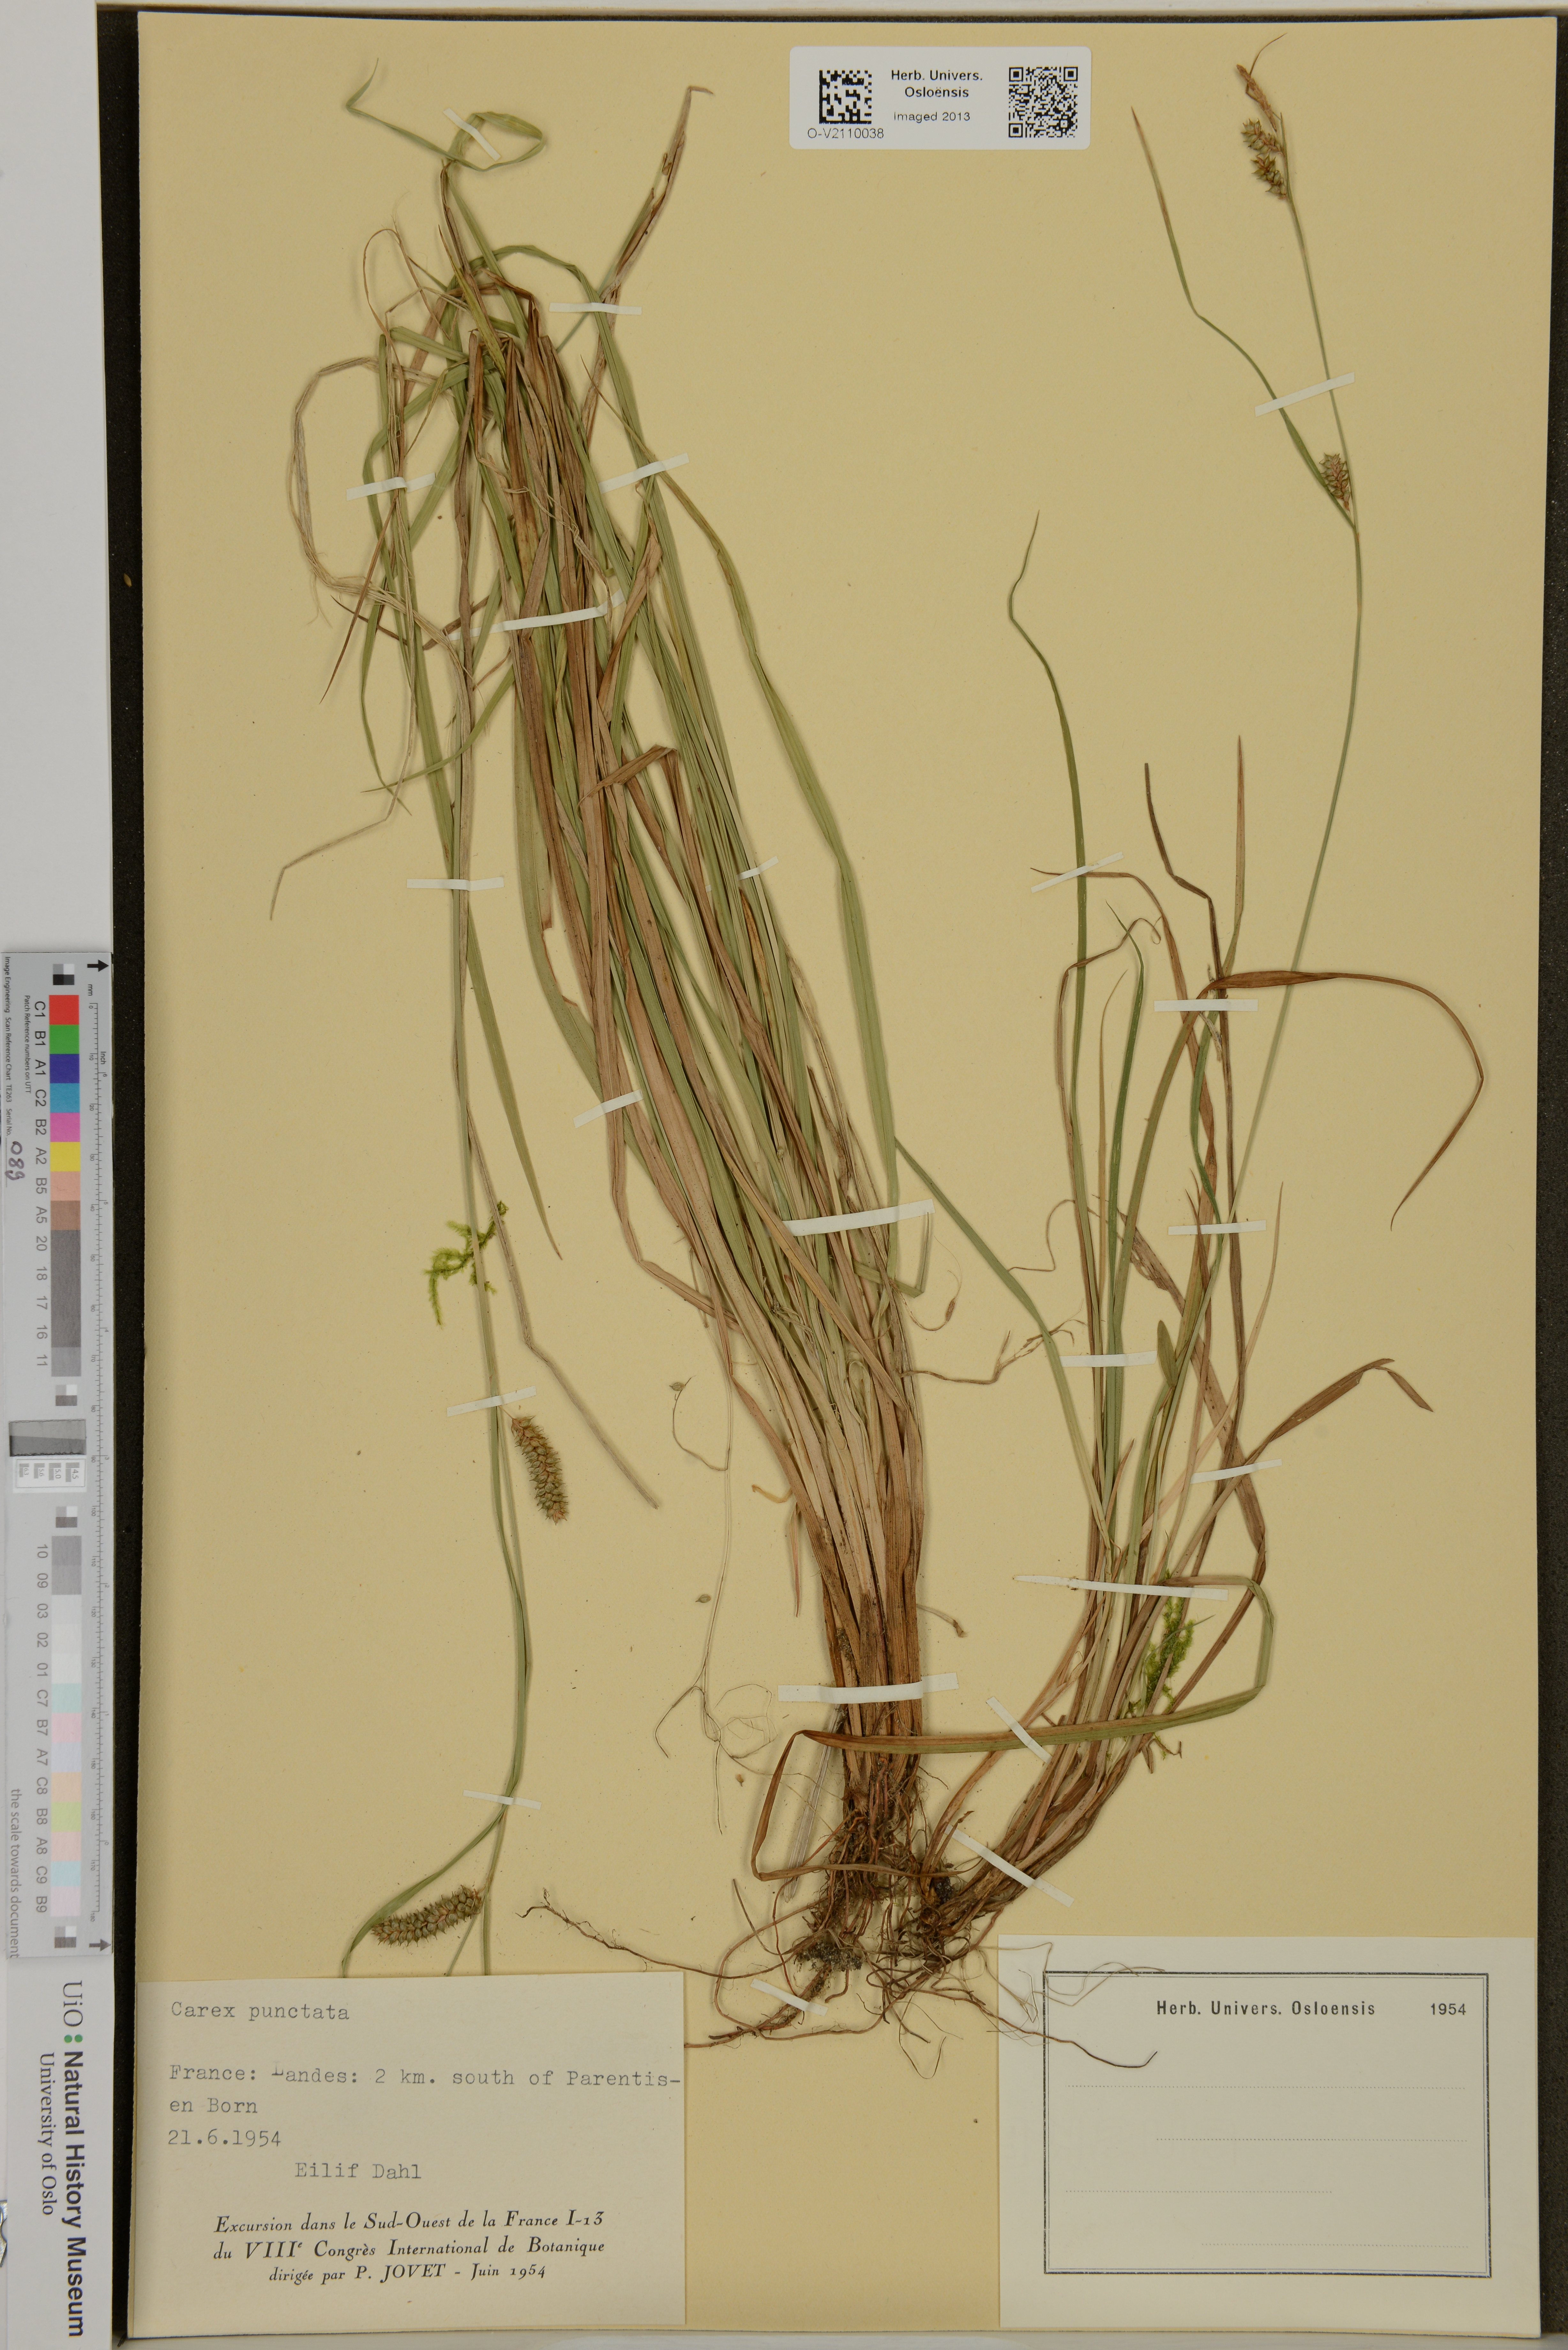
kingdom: Plantae
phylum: Tracheophyta
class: Liliopsida
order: Poales
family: Cyperaceae
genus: Carex
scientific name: Carex punctata
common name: Dotted sedge
